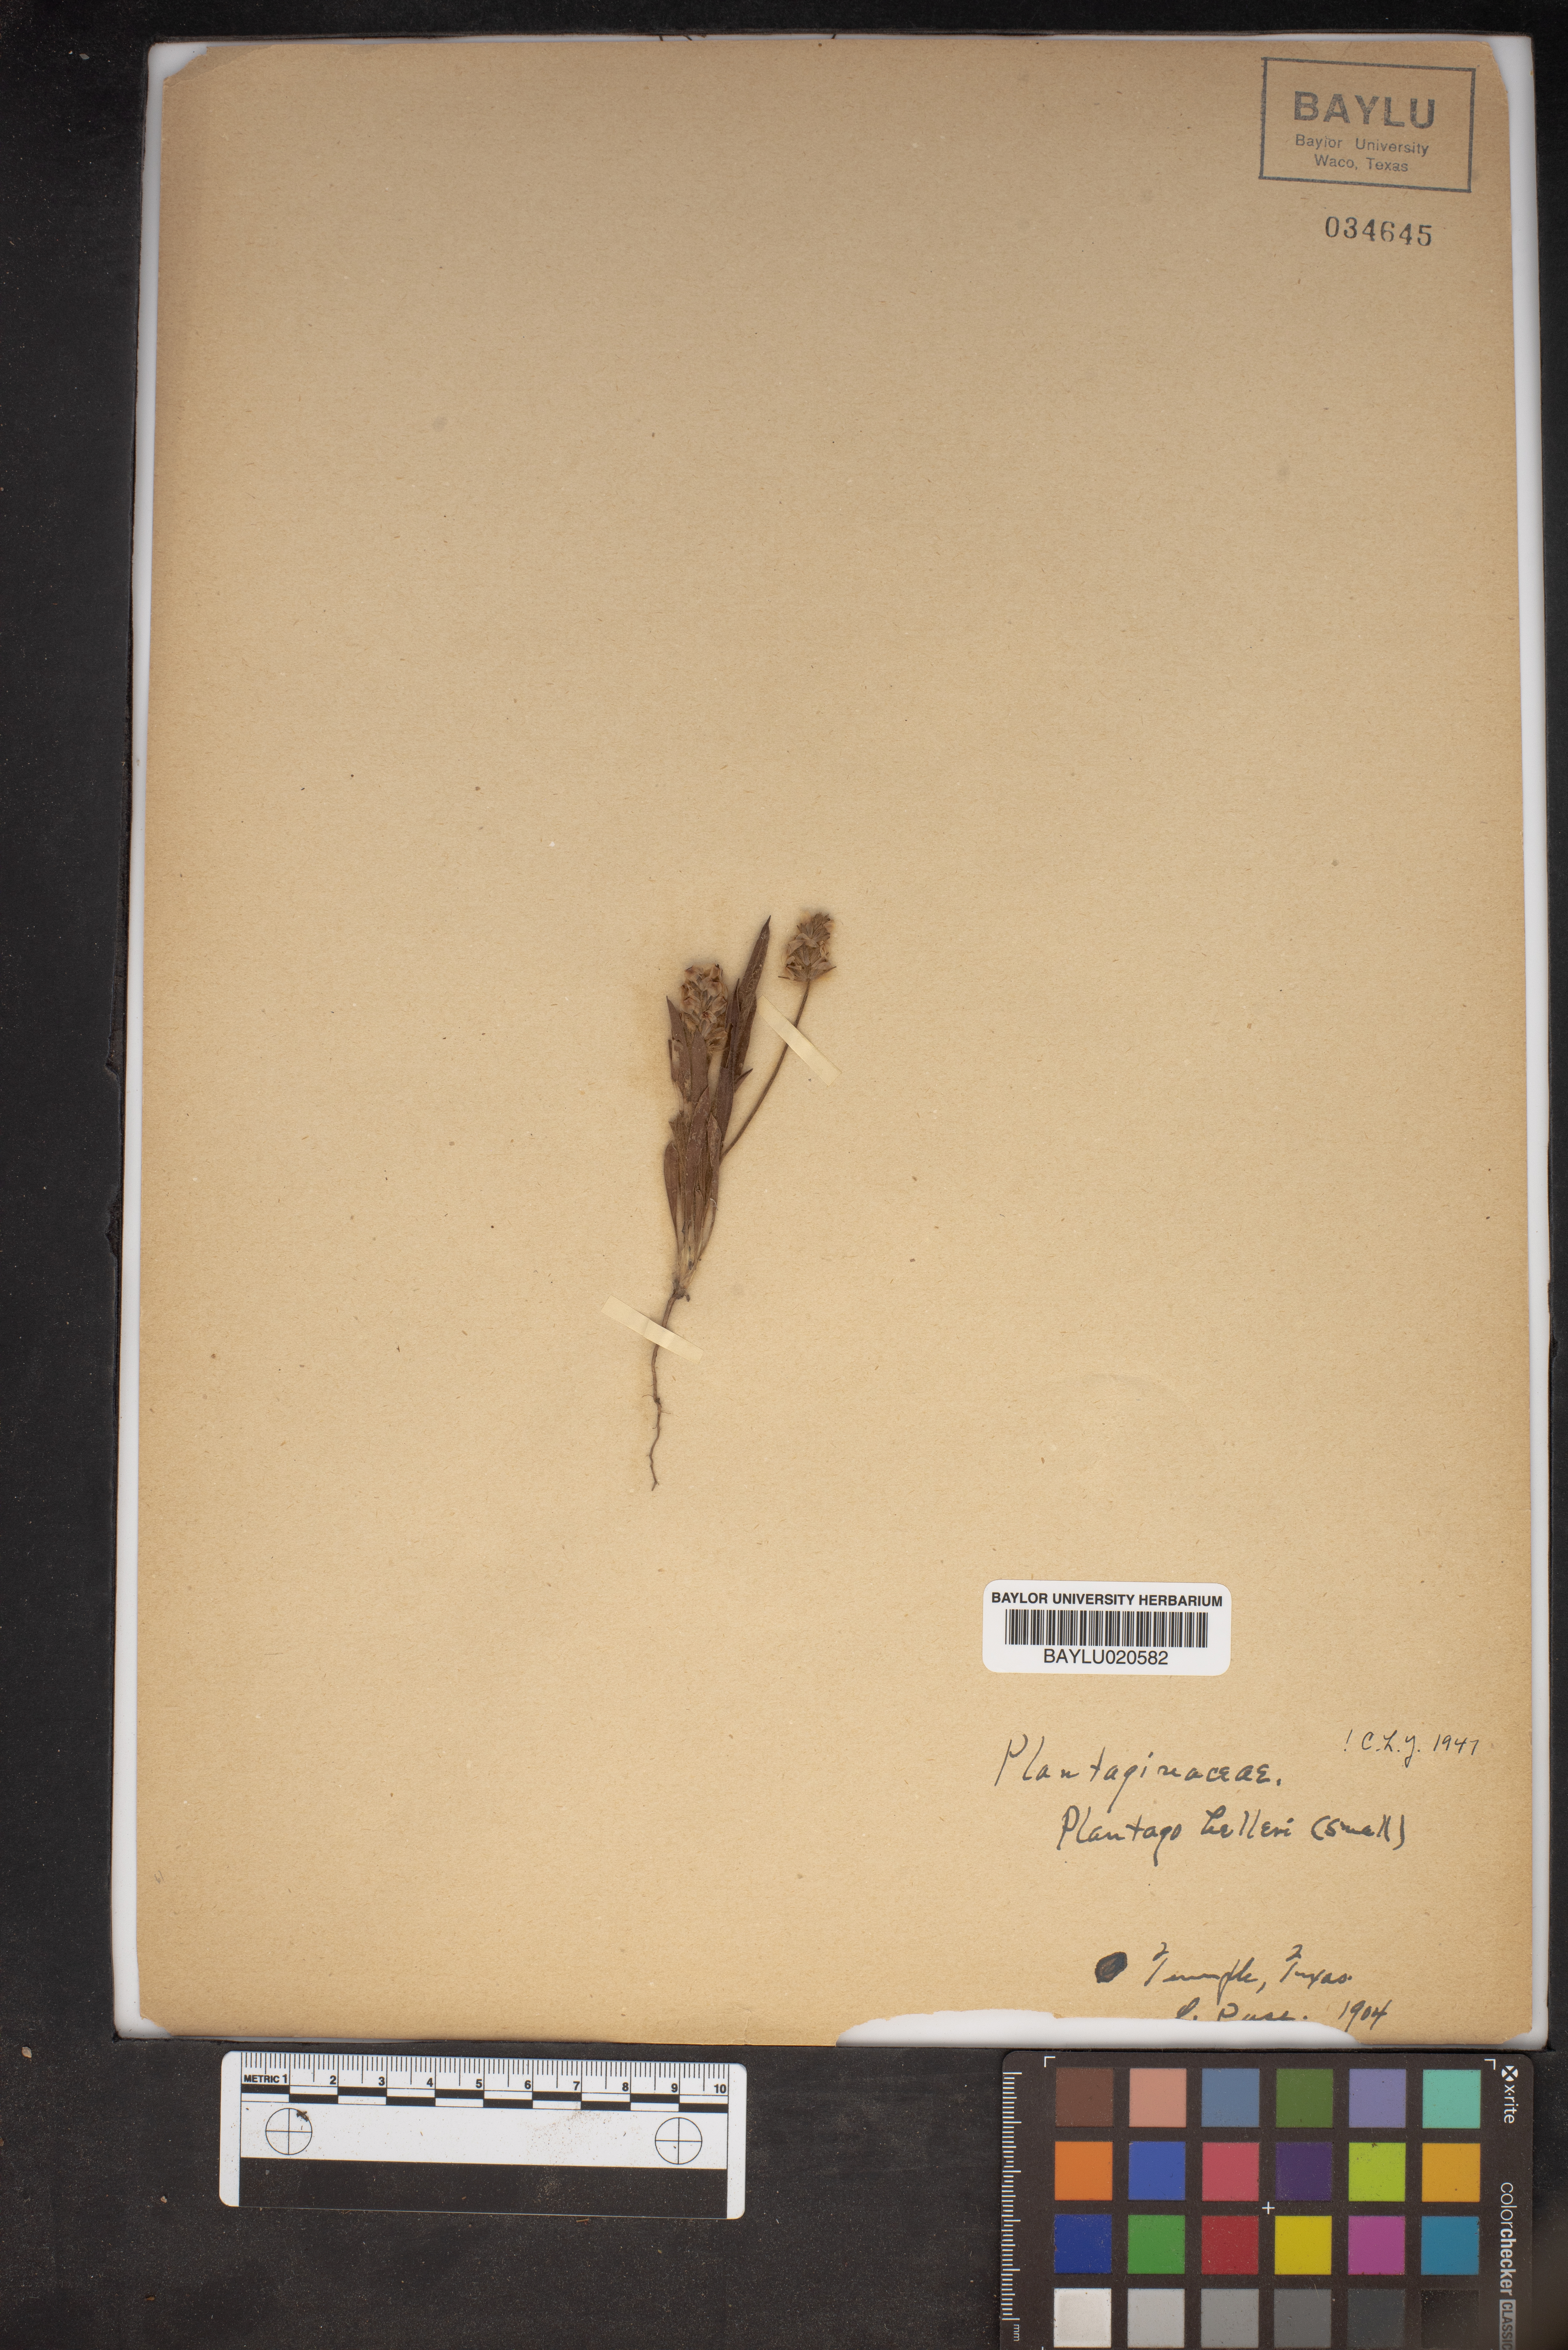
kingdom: Plantae
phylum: Tracheophyta
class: Magnoliopsida
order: Lamiales
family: Plantaginaceae
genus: Plantago
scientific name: Plantago helleri
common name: Heller's plantain
